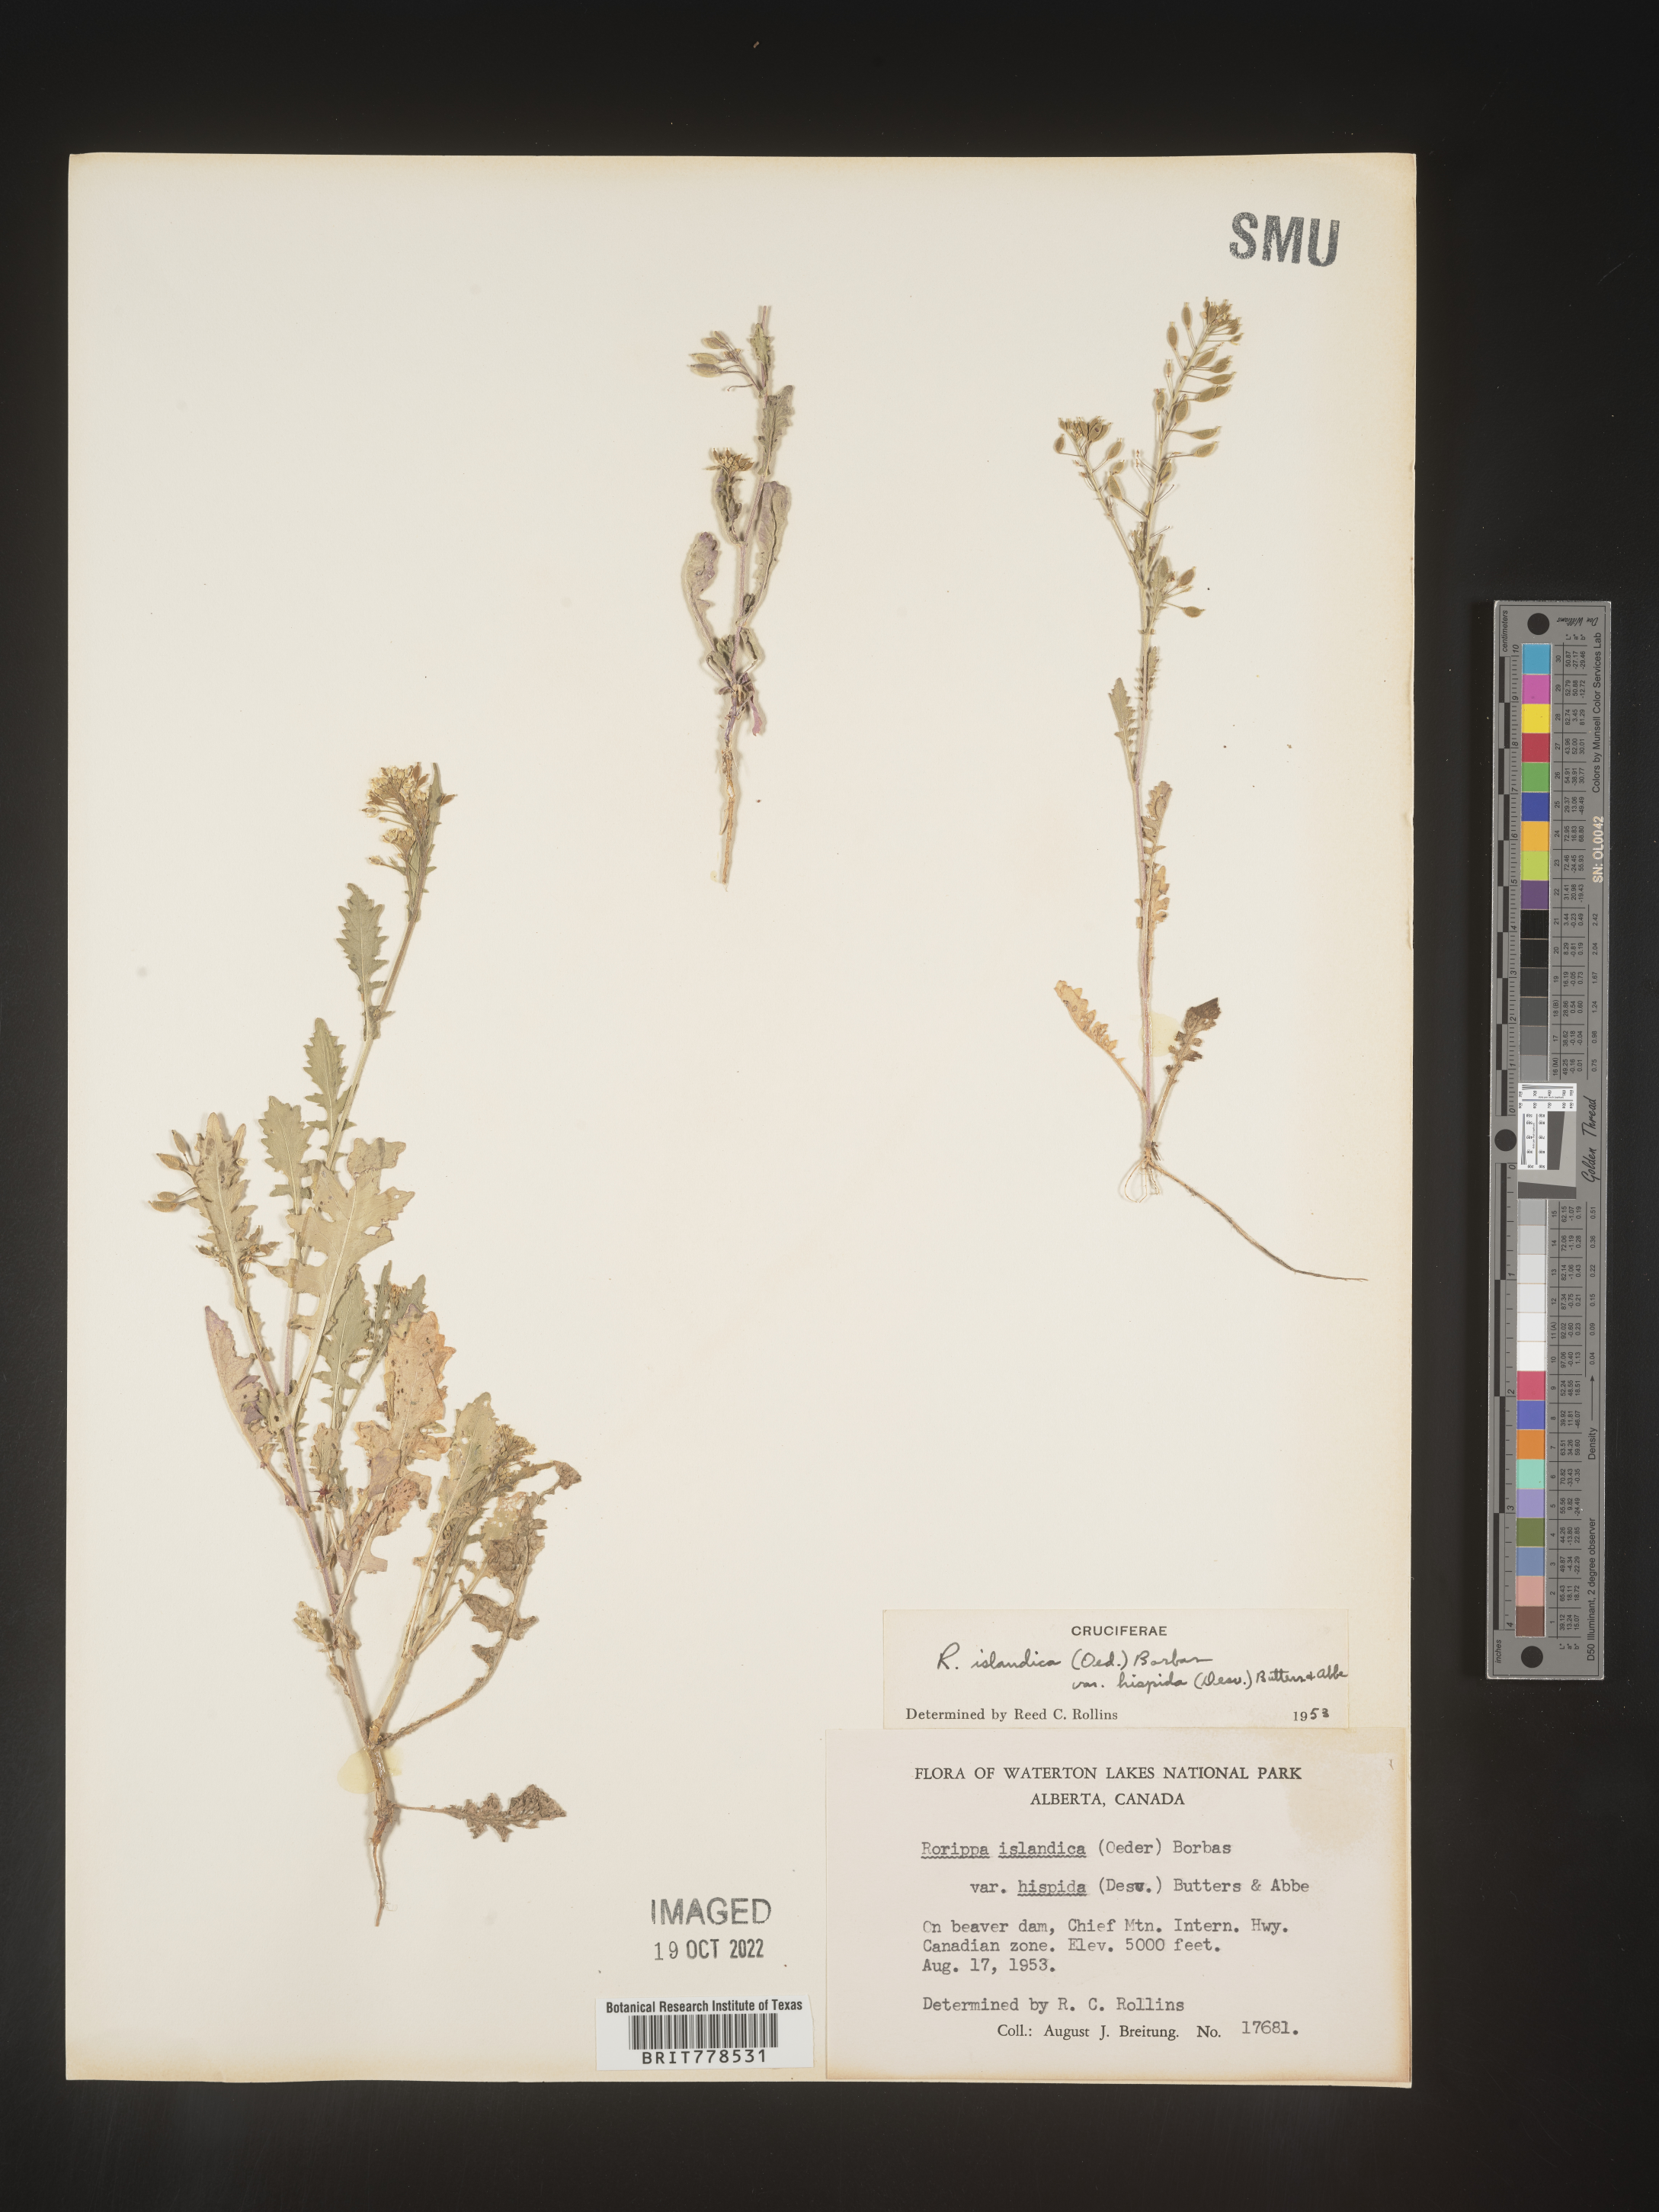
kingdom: Plantae
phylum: Tracheophyta
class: Magnoliopsida
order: Brassicales
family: Brassicaceae
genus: Rorippa
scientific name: Rorippa
